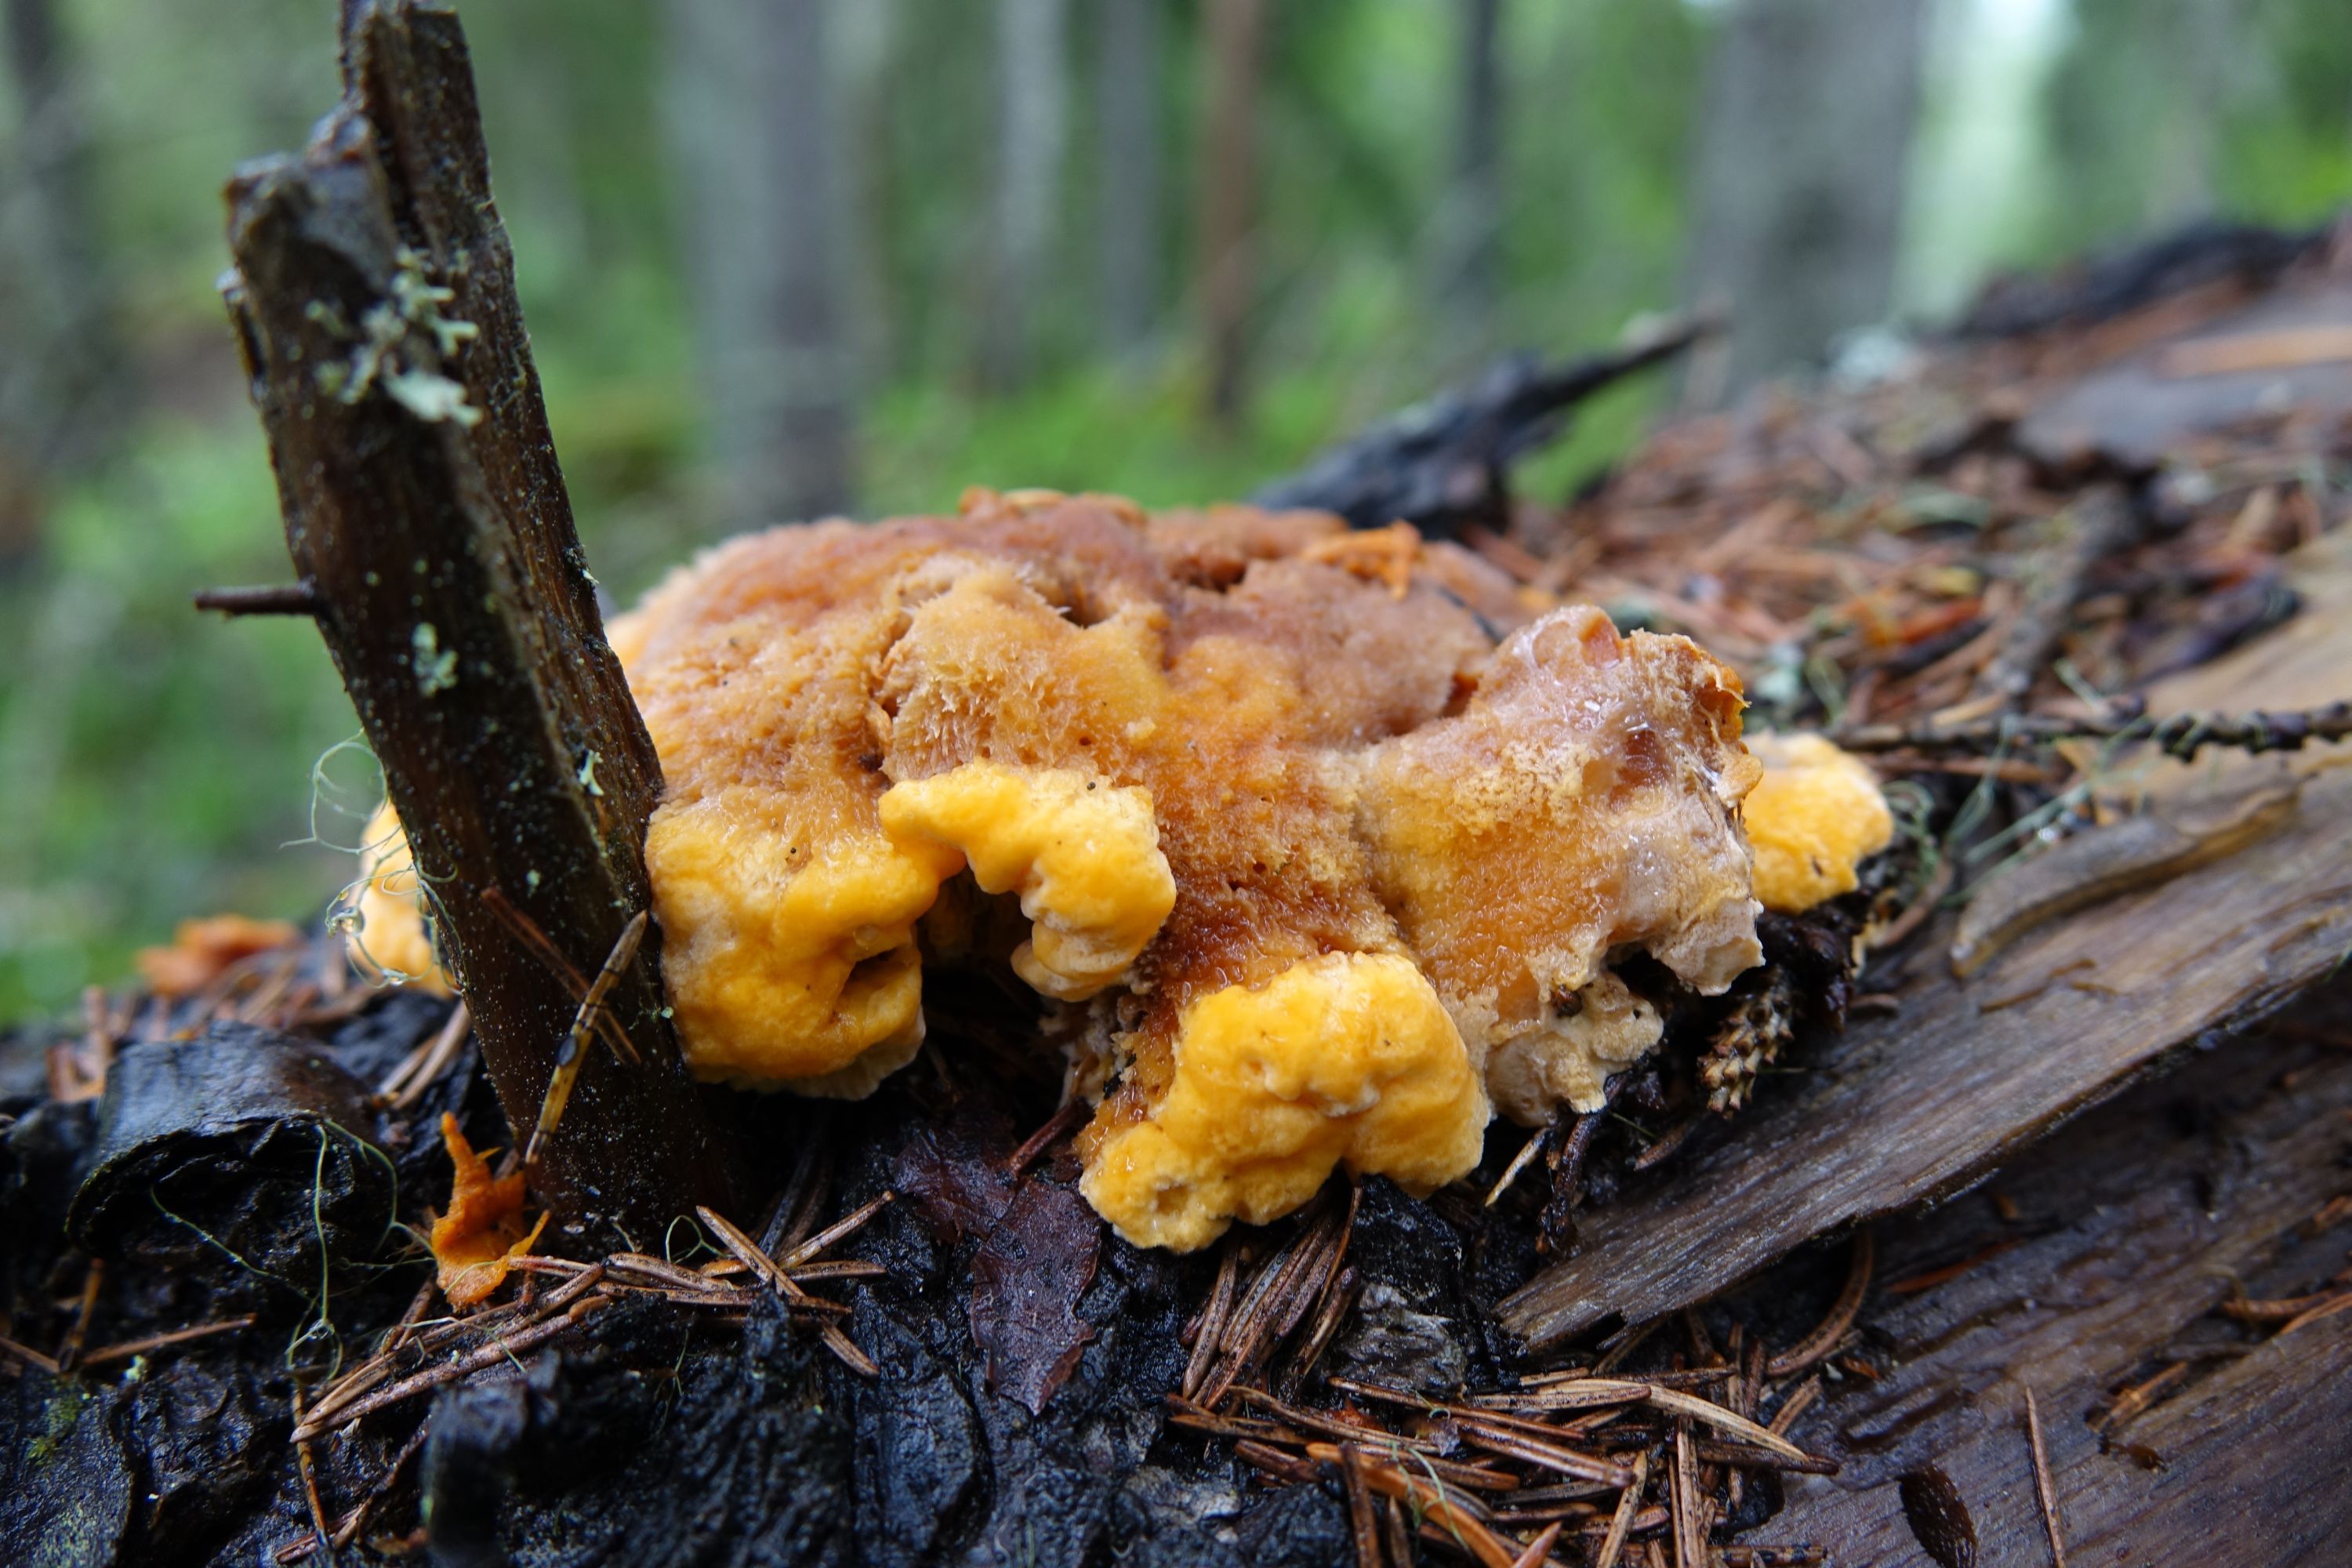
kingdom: Fungi
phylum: Basidiomycota
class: Agaricomycetes
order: Polyporales
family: Pycnoporellaceae
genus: Pycnoporellus
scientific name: Pycnoporellus fulgens
